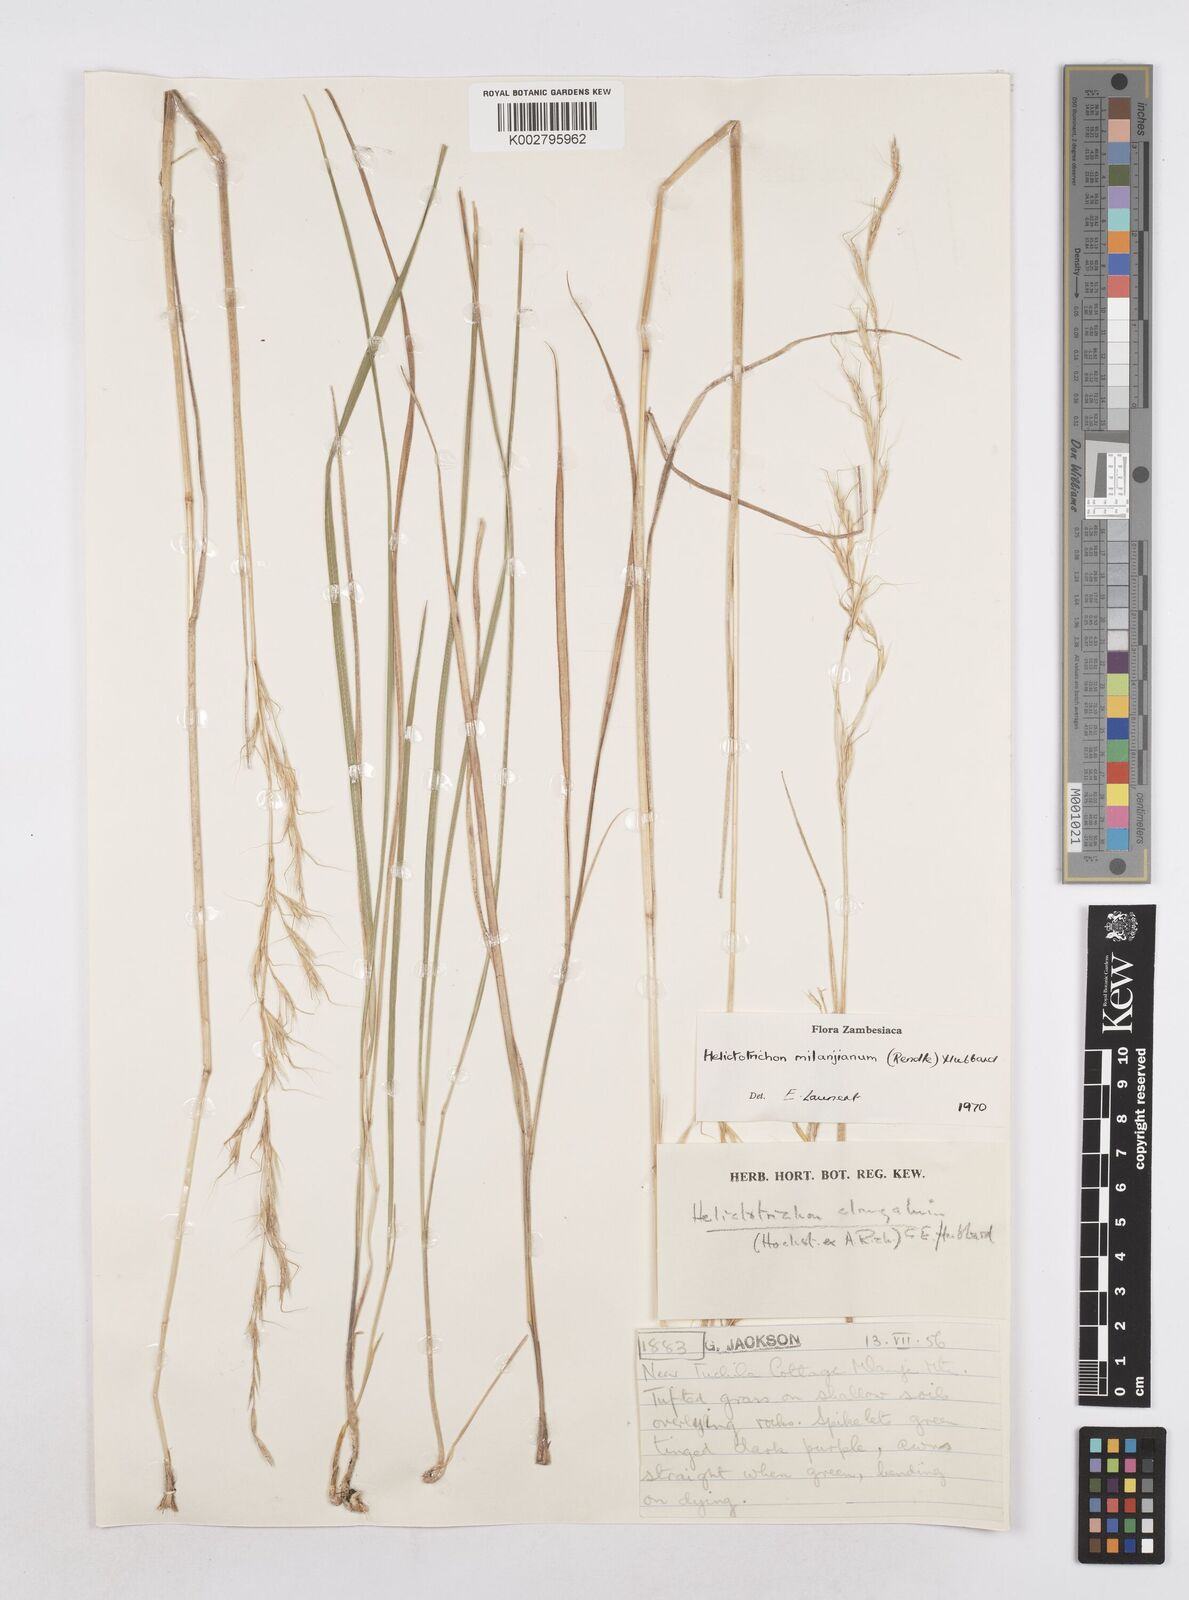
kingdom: Plantae
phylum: Tracheophyta
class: Liliopsida
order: Poales
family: Poaceae
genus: Trisetopsis
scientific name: Trisetopsis milanjiana
